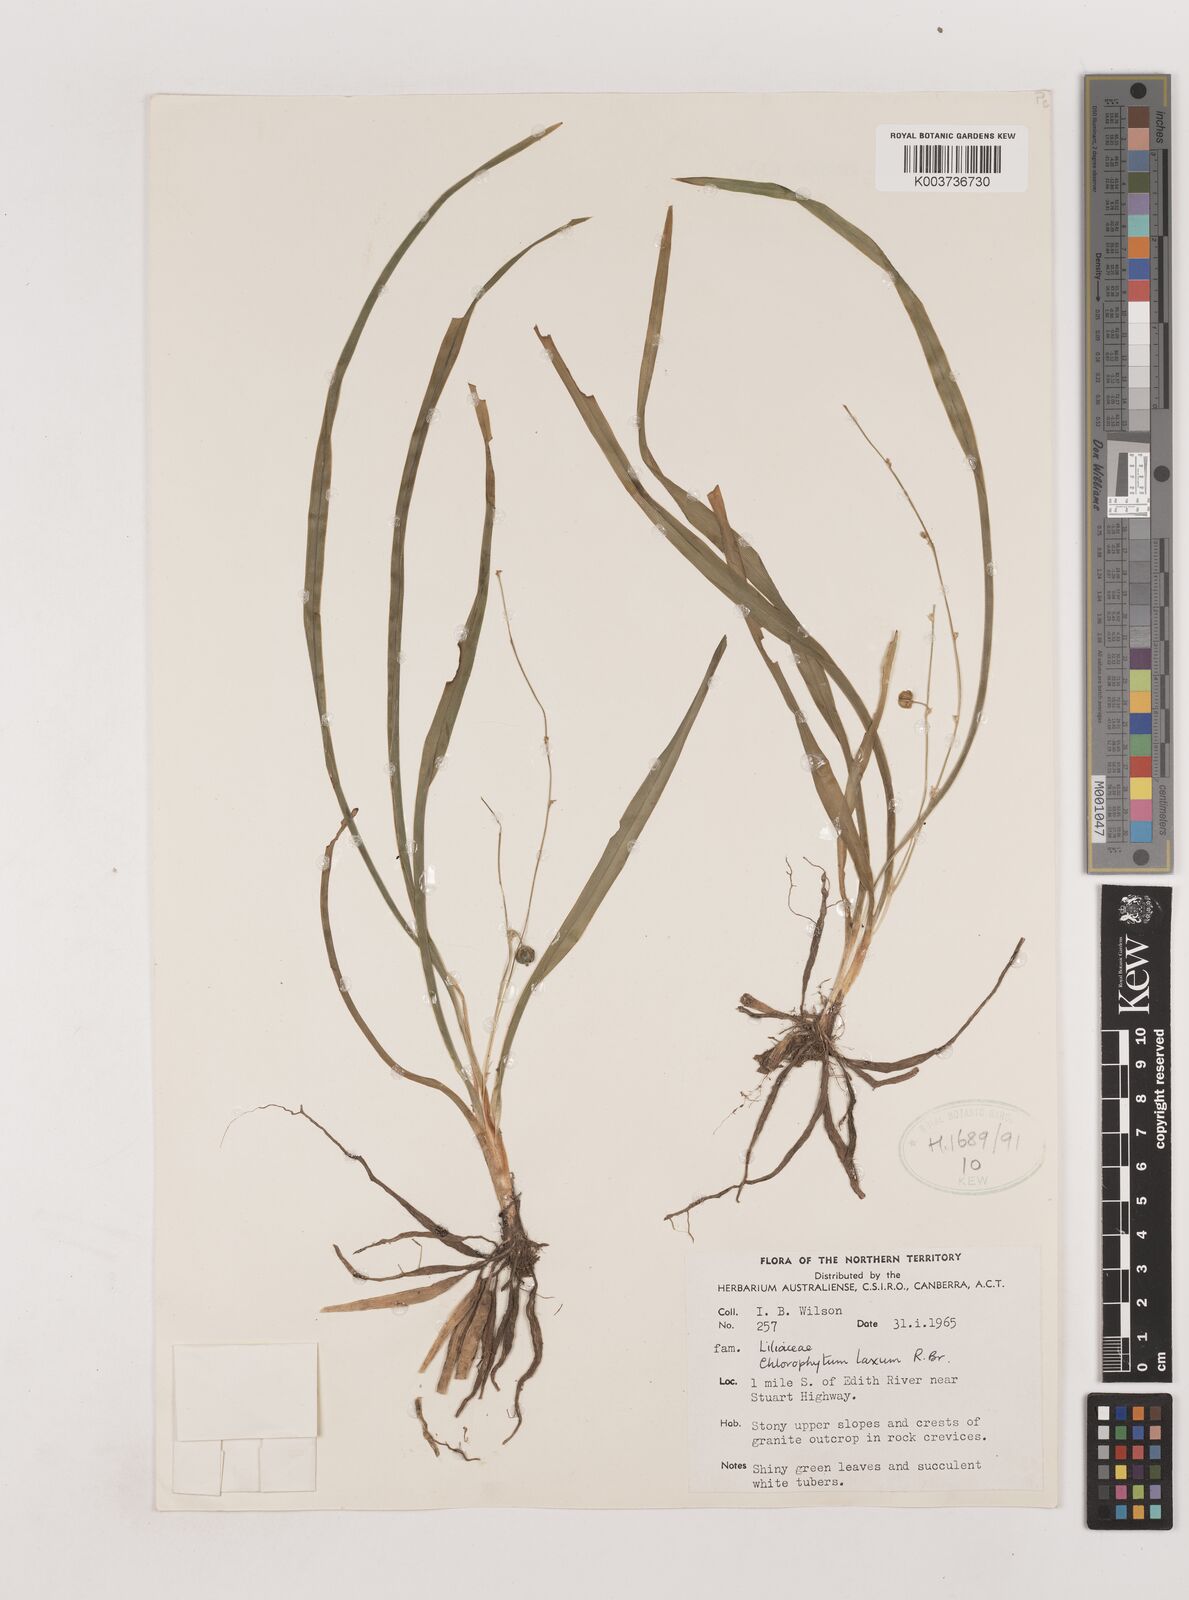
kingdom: Plantae
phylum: Tracheophyta
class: Liliopsida
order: Asparagales
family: Asparagaceae
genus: Chlorophytum
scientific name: Chlorophytum laxum
